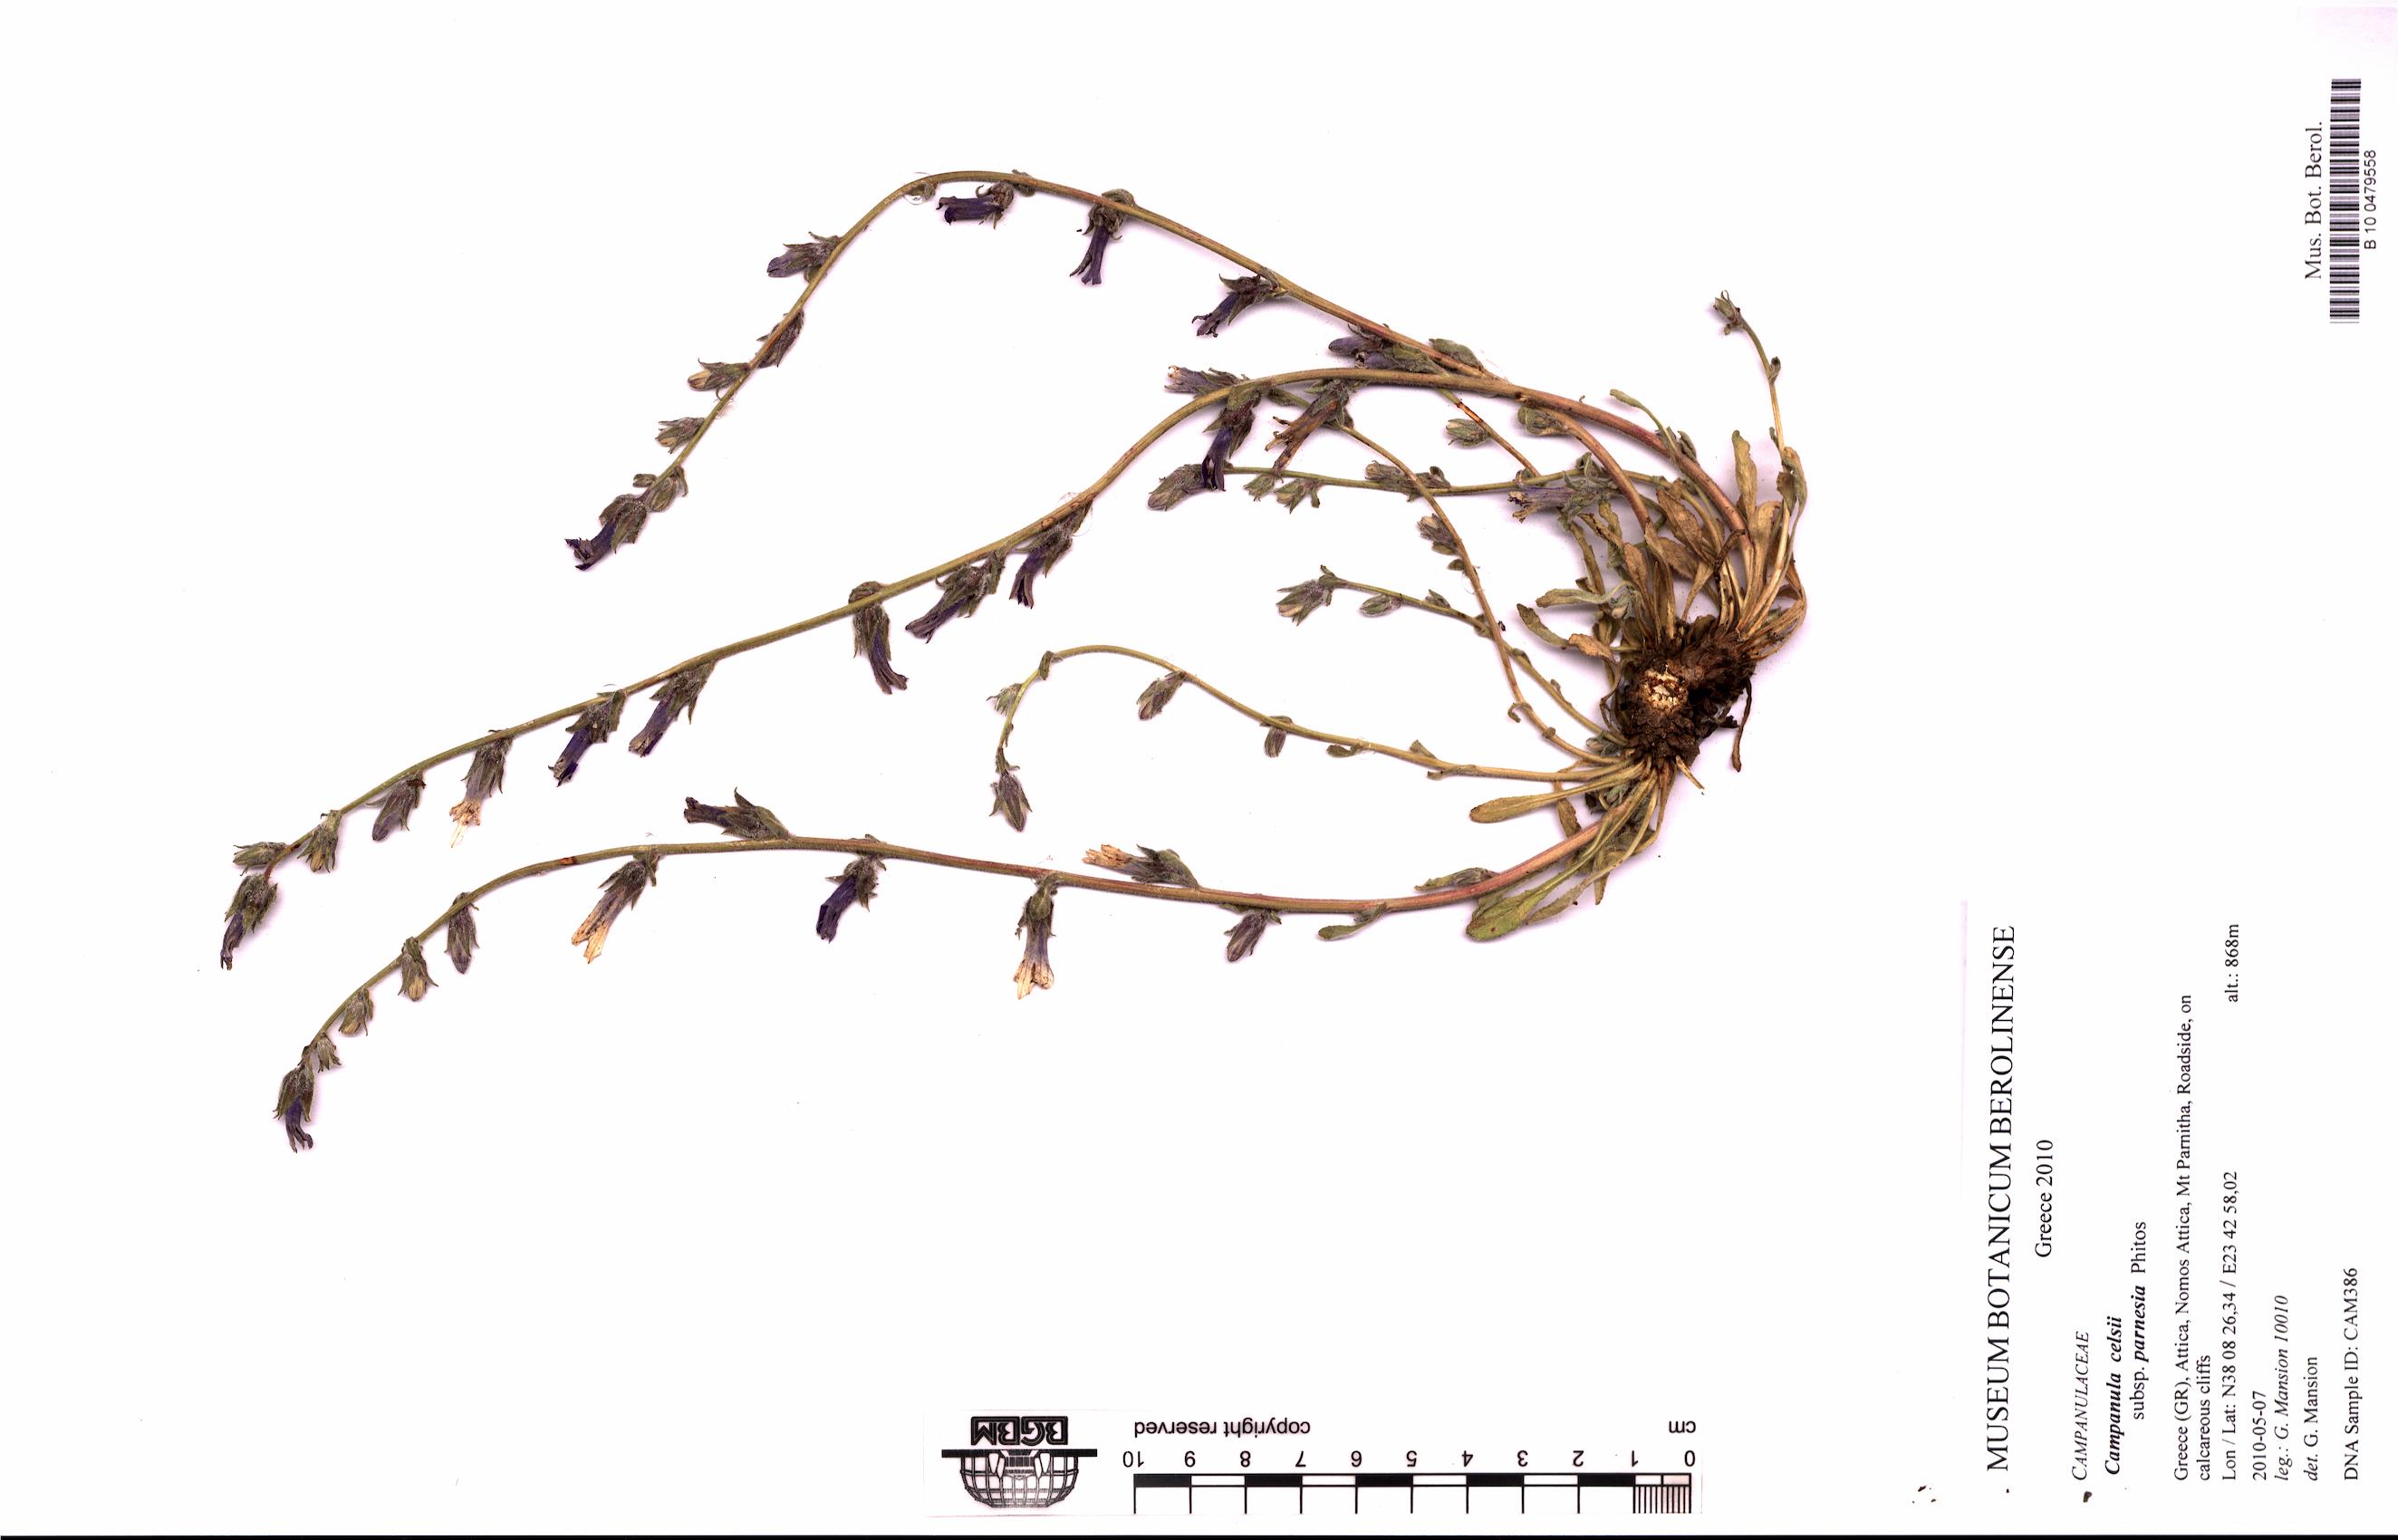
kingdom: Plantae
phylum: Tracheophyta
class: Magnoliopsida
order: Asterales
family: Campanulaceae
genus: Campanula
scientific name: Campanula celsii
